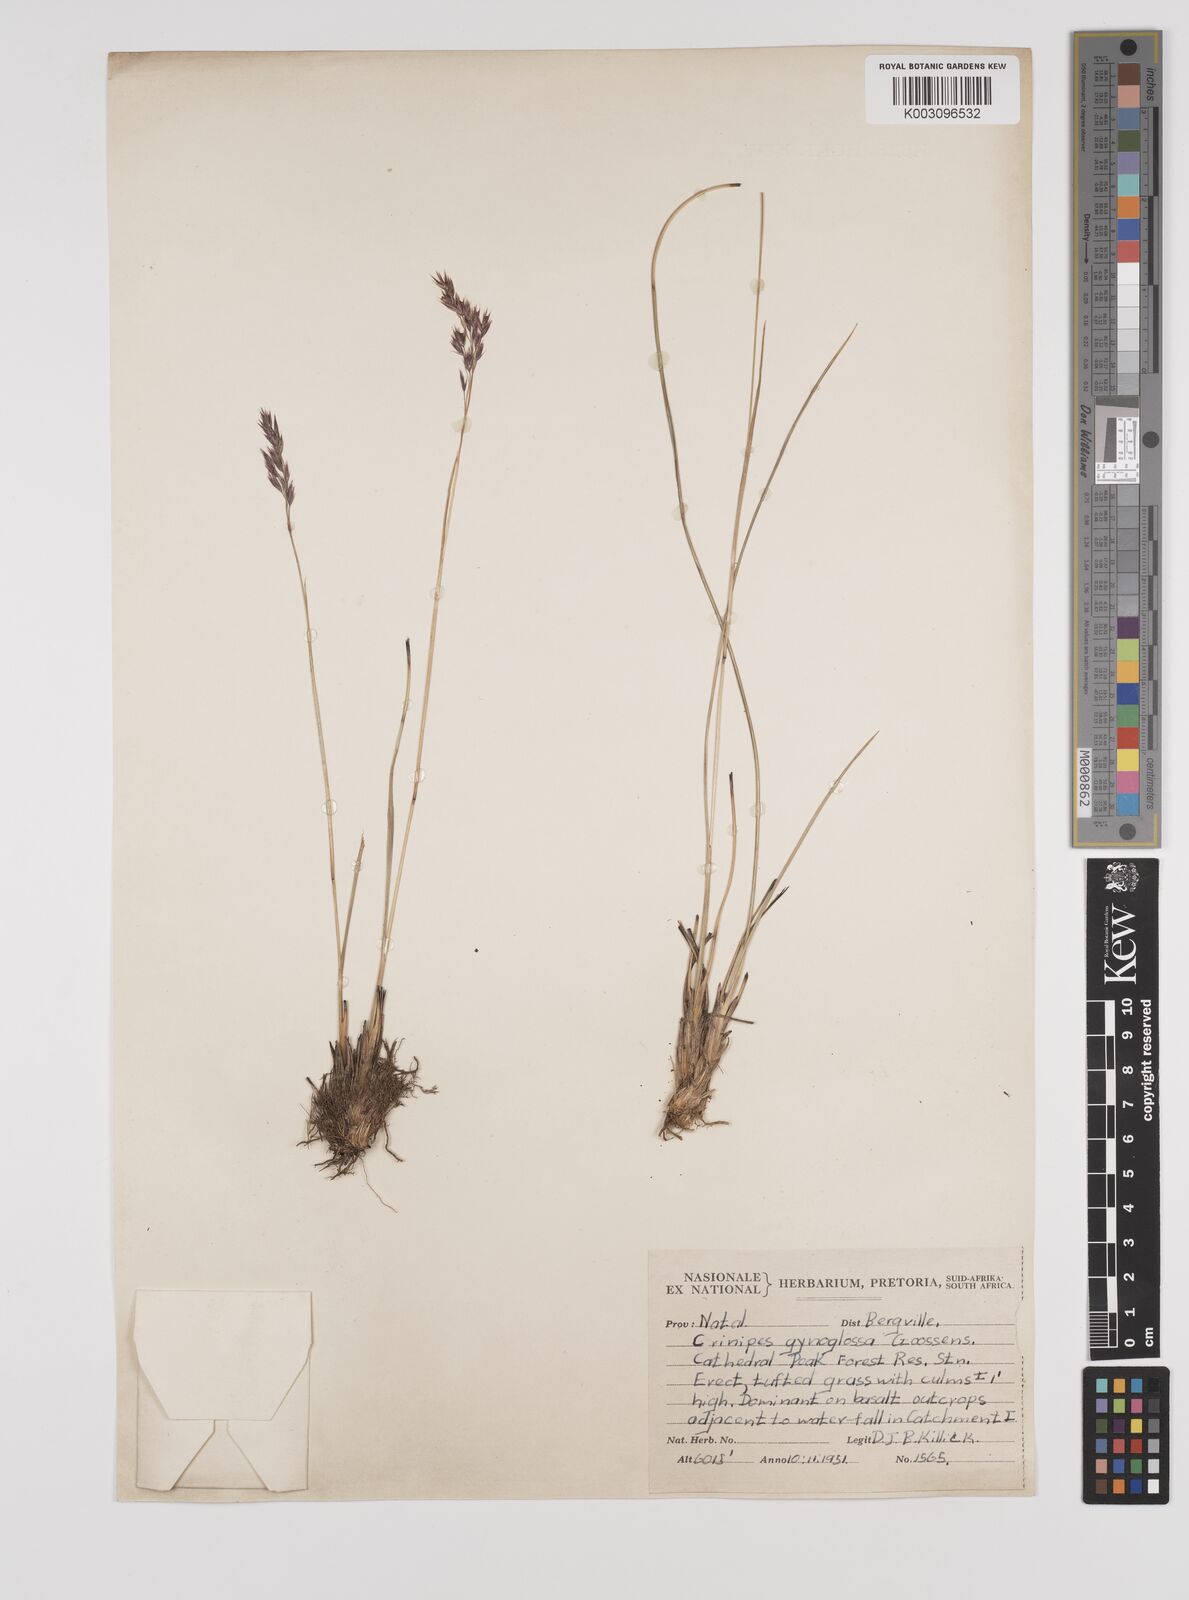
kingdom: Plantae
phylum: Tracheophyta
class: Liliopsida
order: Poales
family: Poaceae
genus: Styppeiochloa
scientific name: Styppeiochloa gynoglossa
